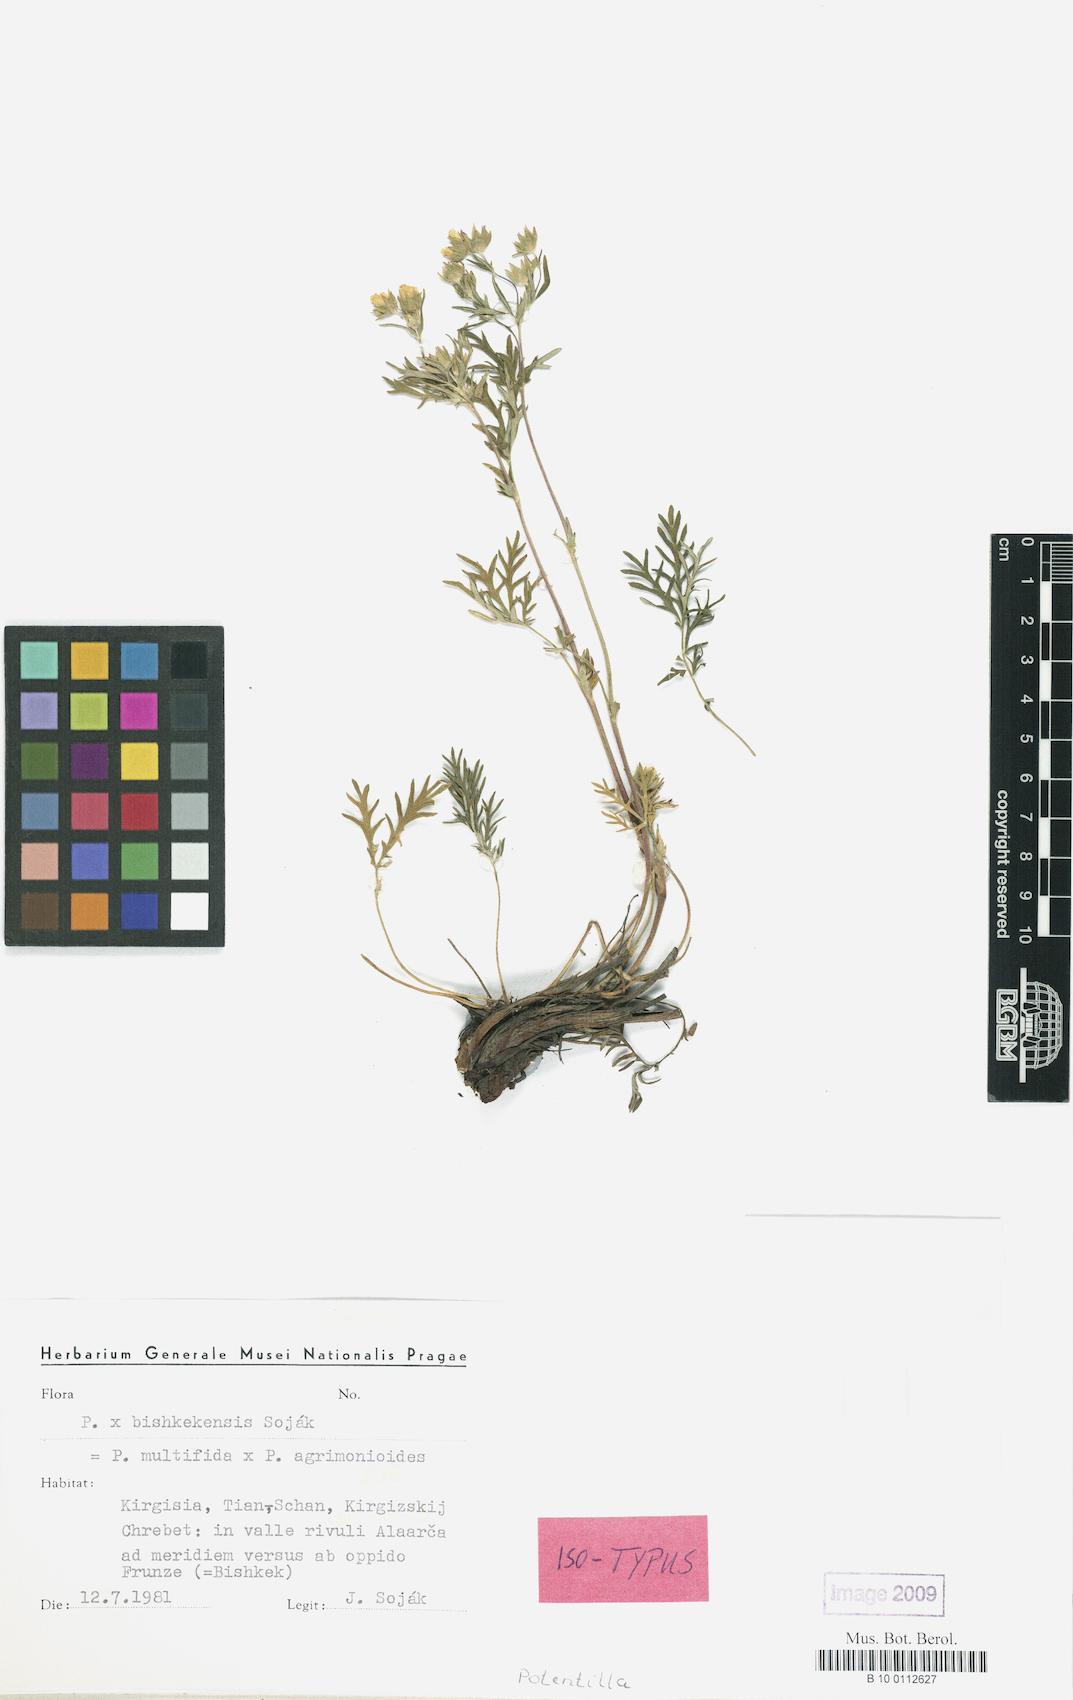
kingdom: Plantae
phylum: Tracheophyta
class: Magnoliopsida
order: Rosales
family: Rosaceae
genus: Potentilla
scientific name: Potentilla bishkekensis
